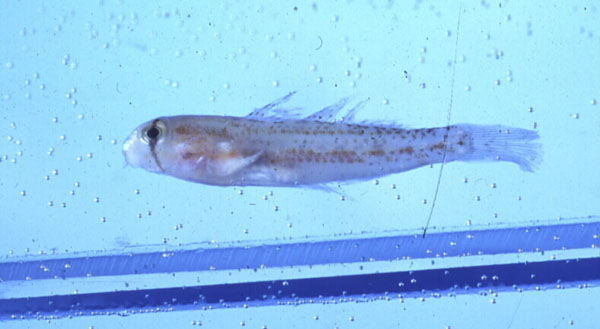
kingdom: Animalia
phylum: Chordata
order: Perciformes
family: Gobiidae
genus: Gnatholepis
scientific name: Gnatholepis cauerensis
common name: Bridled goby
